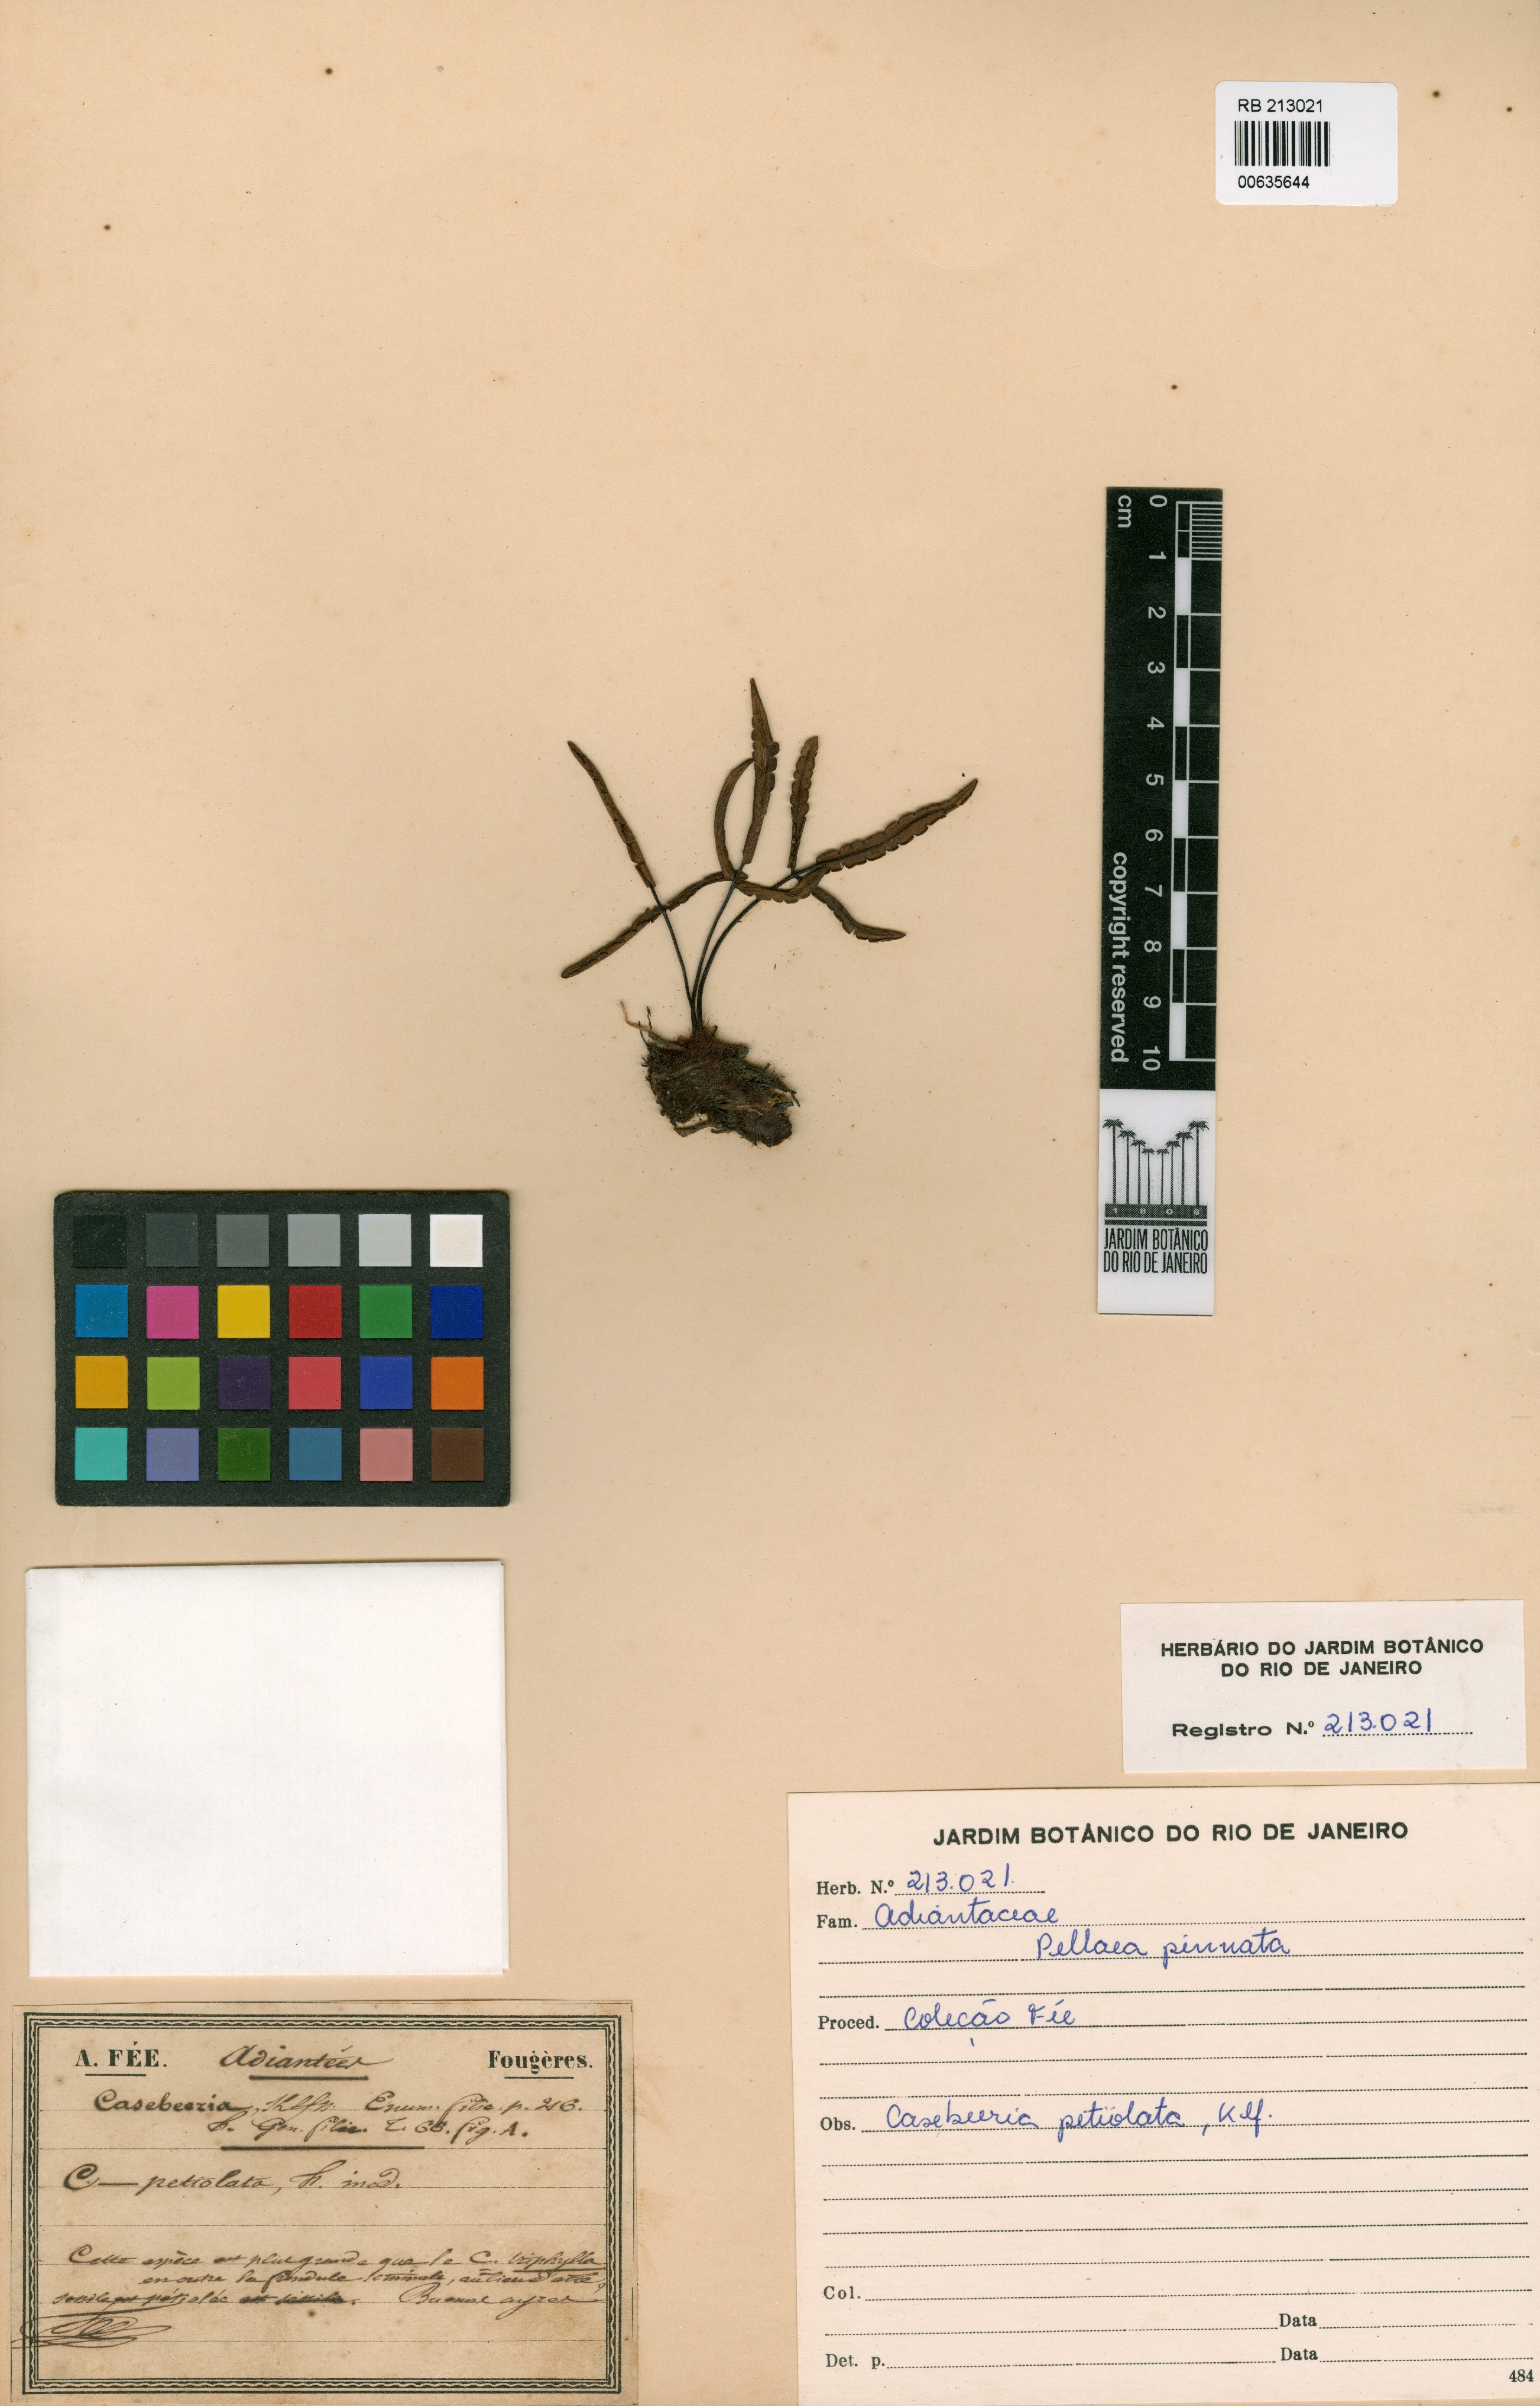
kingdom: Plantae
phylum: Tracheophyta
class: Polypodiopsida
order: Polypodiales
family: Pteridaceae
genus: Ormopteris
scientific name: Ormopteris pinnata
